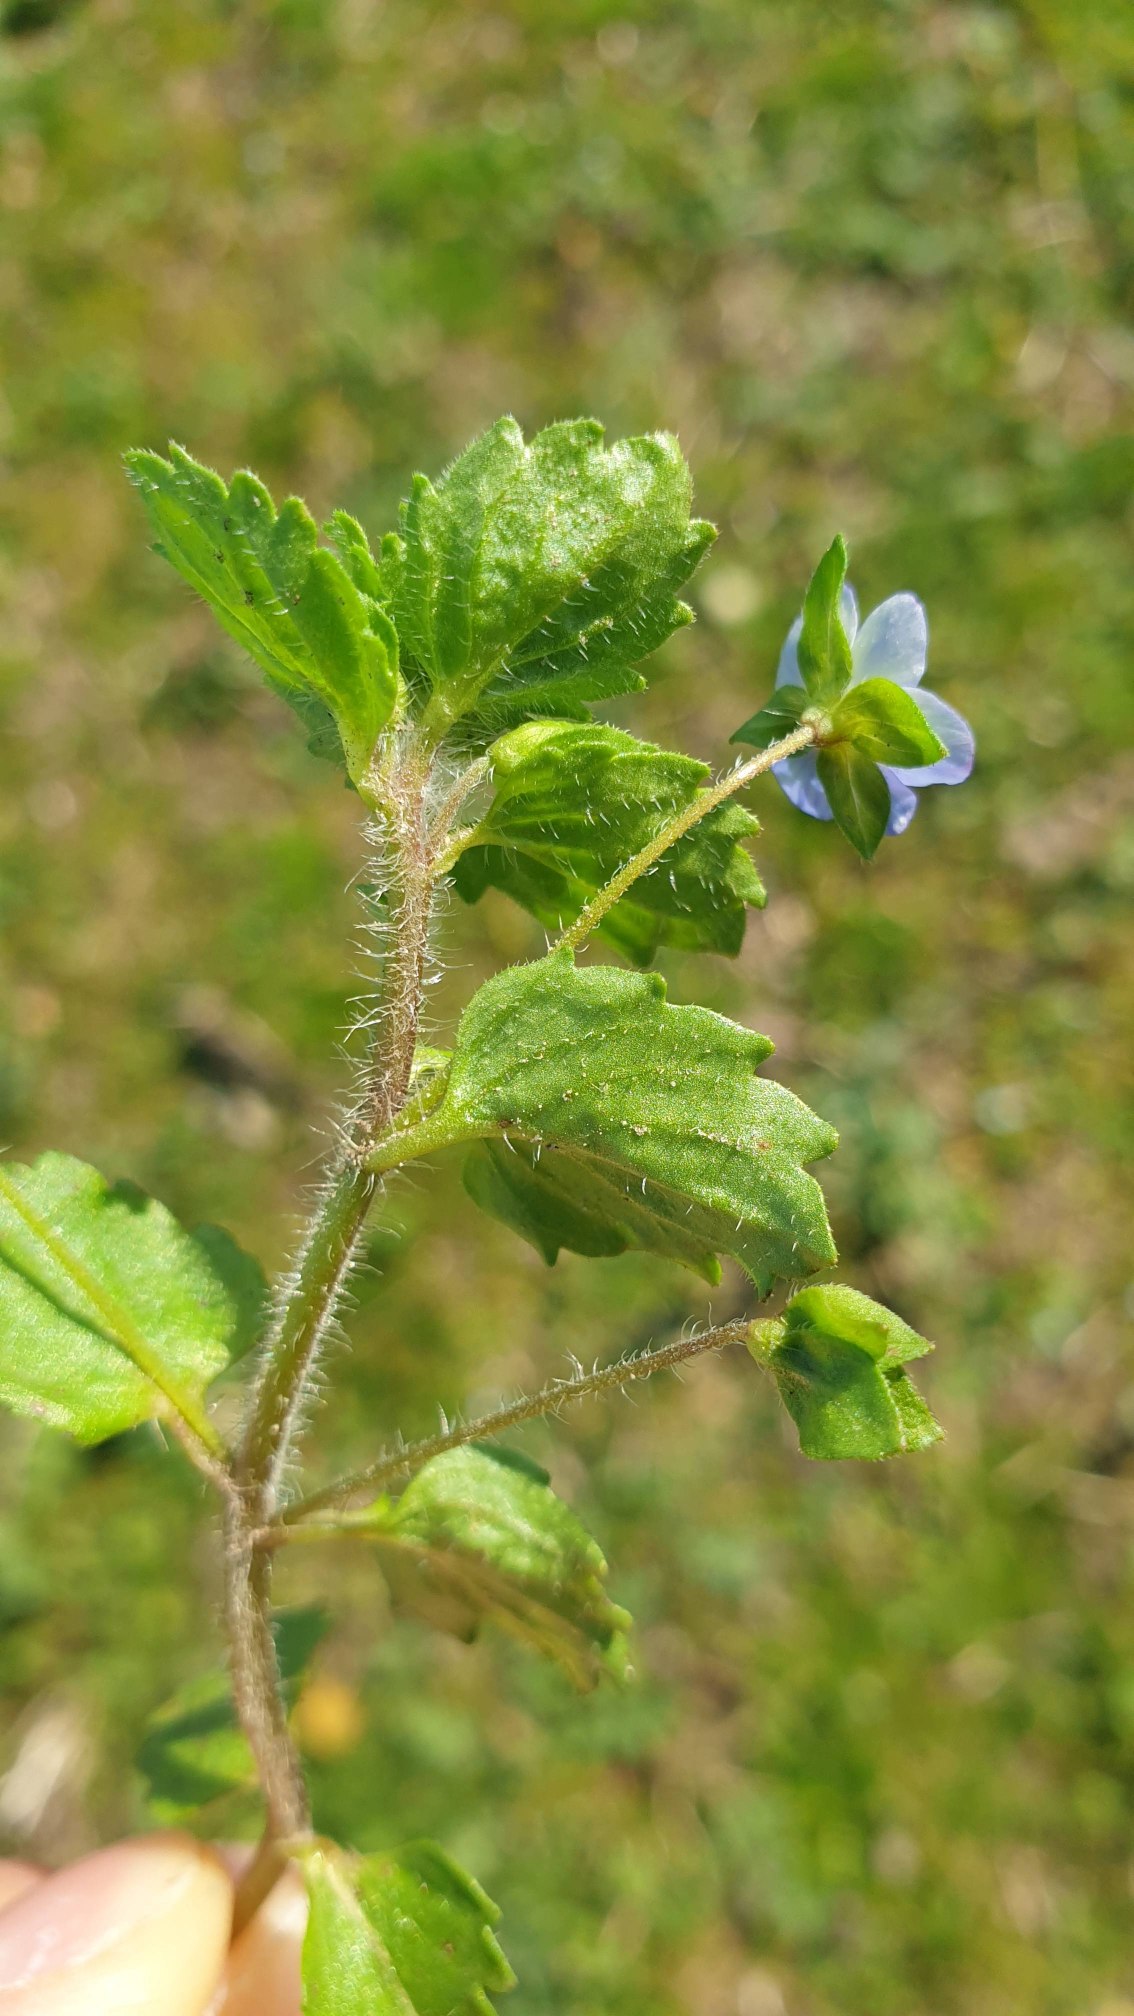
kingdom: Plantae
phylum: Tracheophyta
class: Magnoliopsida
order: Lamiales
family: Plantaginaceae
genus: Veronica
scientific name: Veronica persica
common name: Storkronet ærenpris
